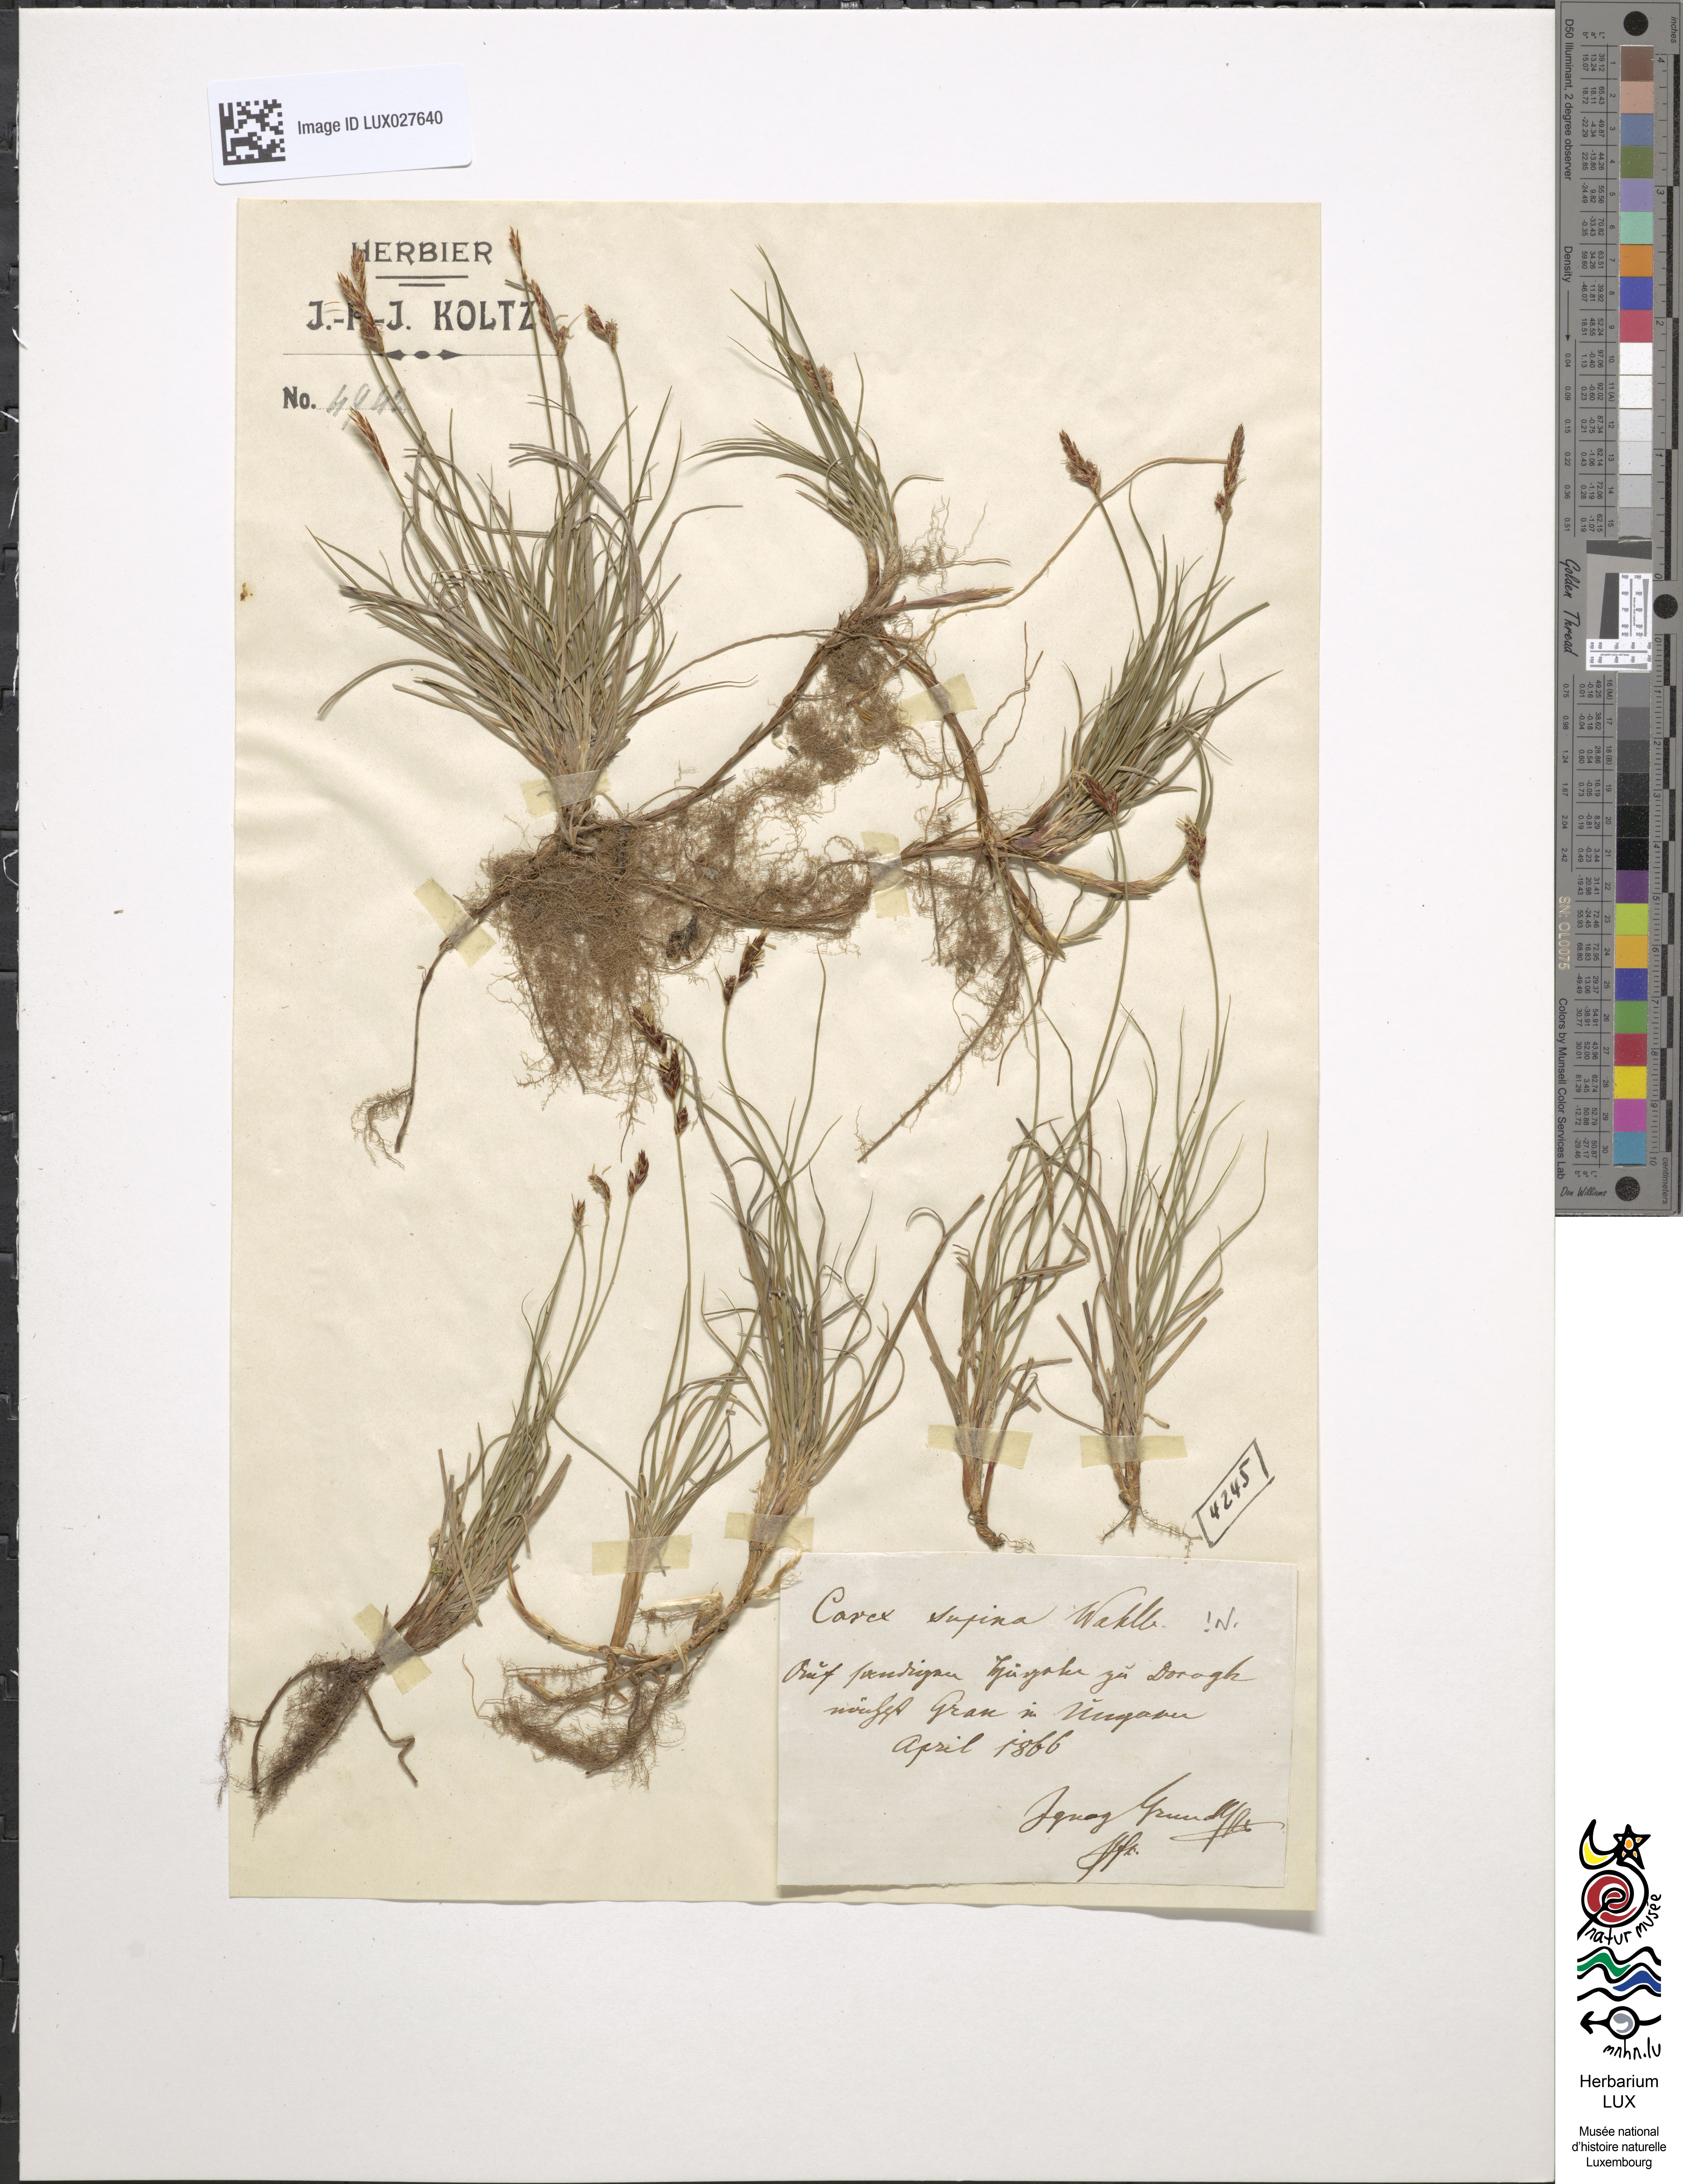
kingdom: Plantae
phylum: Tracheophyta
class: Liliopsida
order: Poales
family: Cyperaceae
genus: Carex
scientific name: Carex supina
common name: Lying-back sedge
